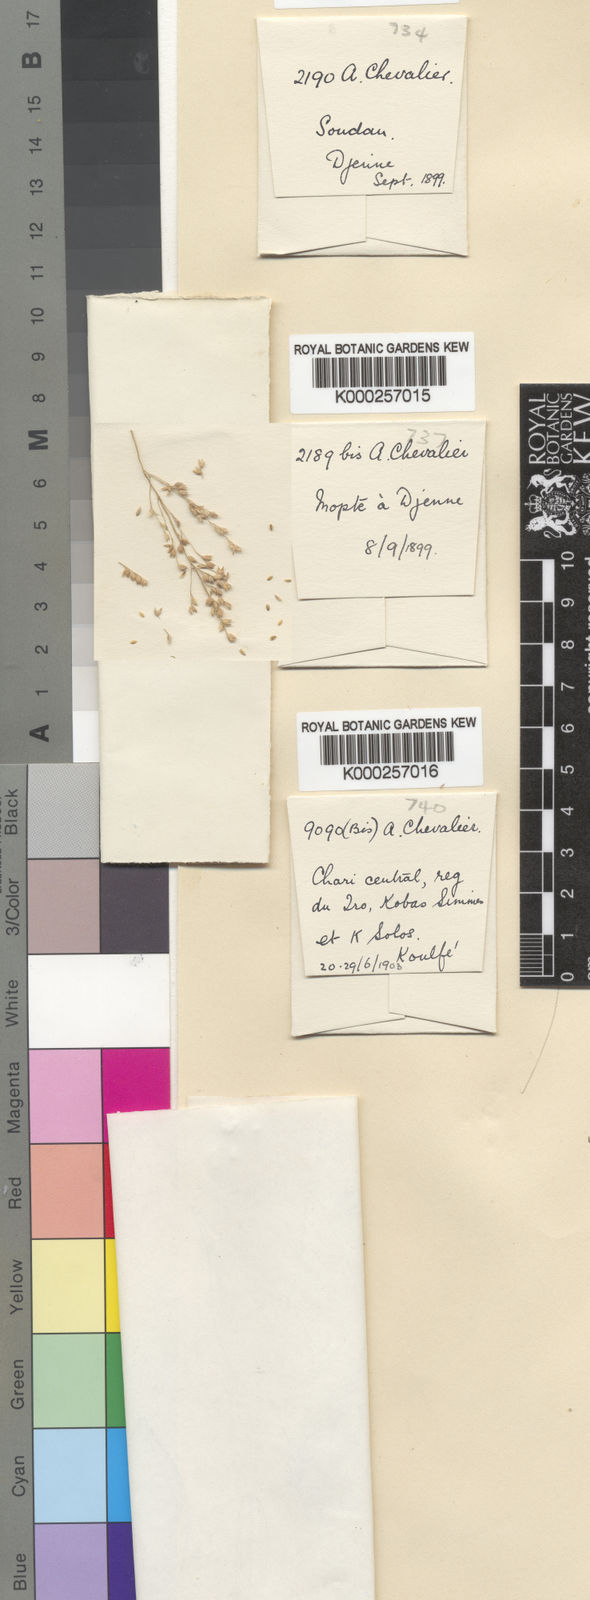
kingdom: Plantae
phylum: Tracheophyta
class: Liliopsida
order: Poales
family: Poaceae
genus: Panicum
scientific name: Panicum fluviicola
